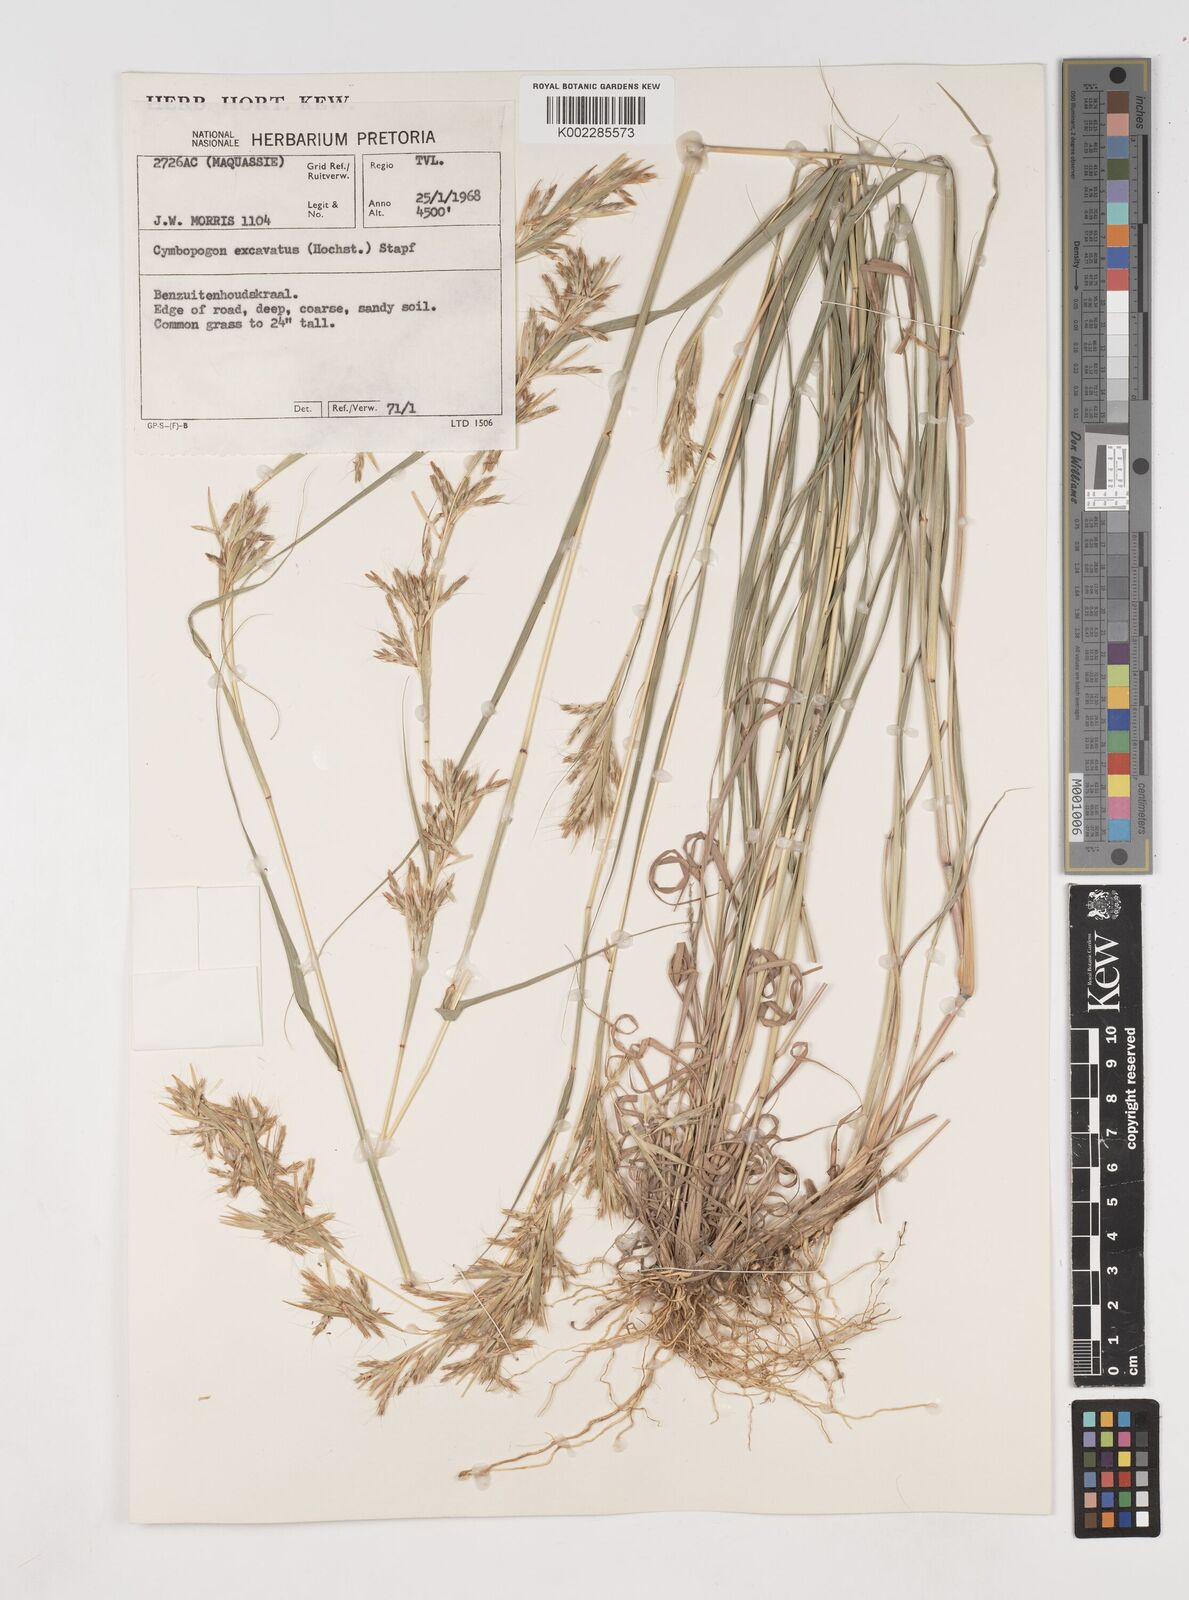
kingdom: Plantae
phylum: Tracheophyta
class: Liliopsida
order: Poales
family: Poaceae
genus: Cymbopogon
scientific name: Cymbopogon caesius
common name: Kachi grass
